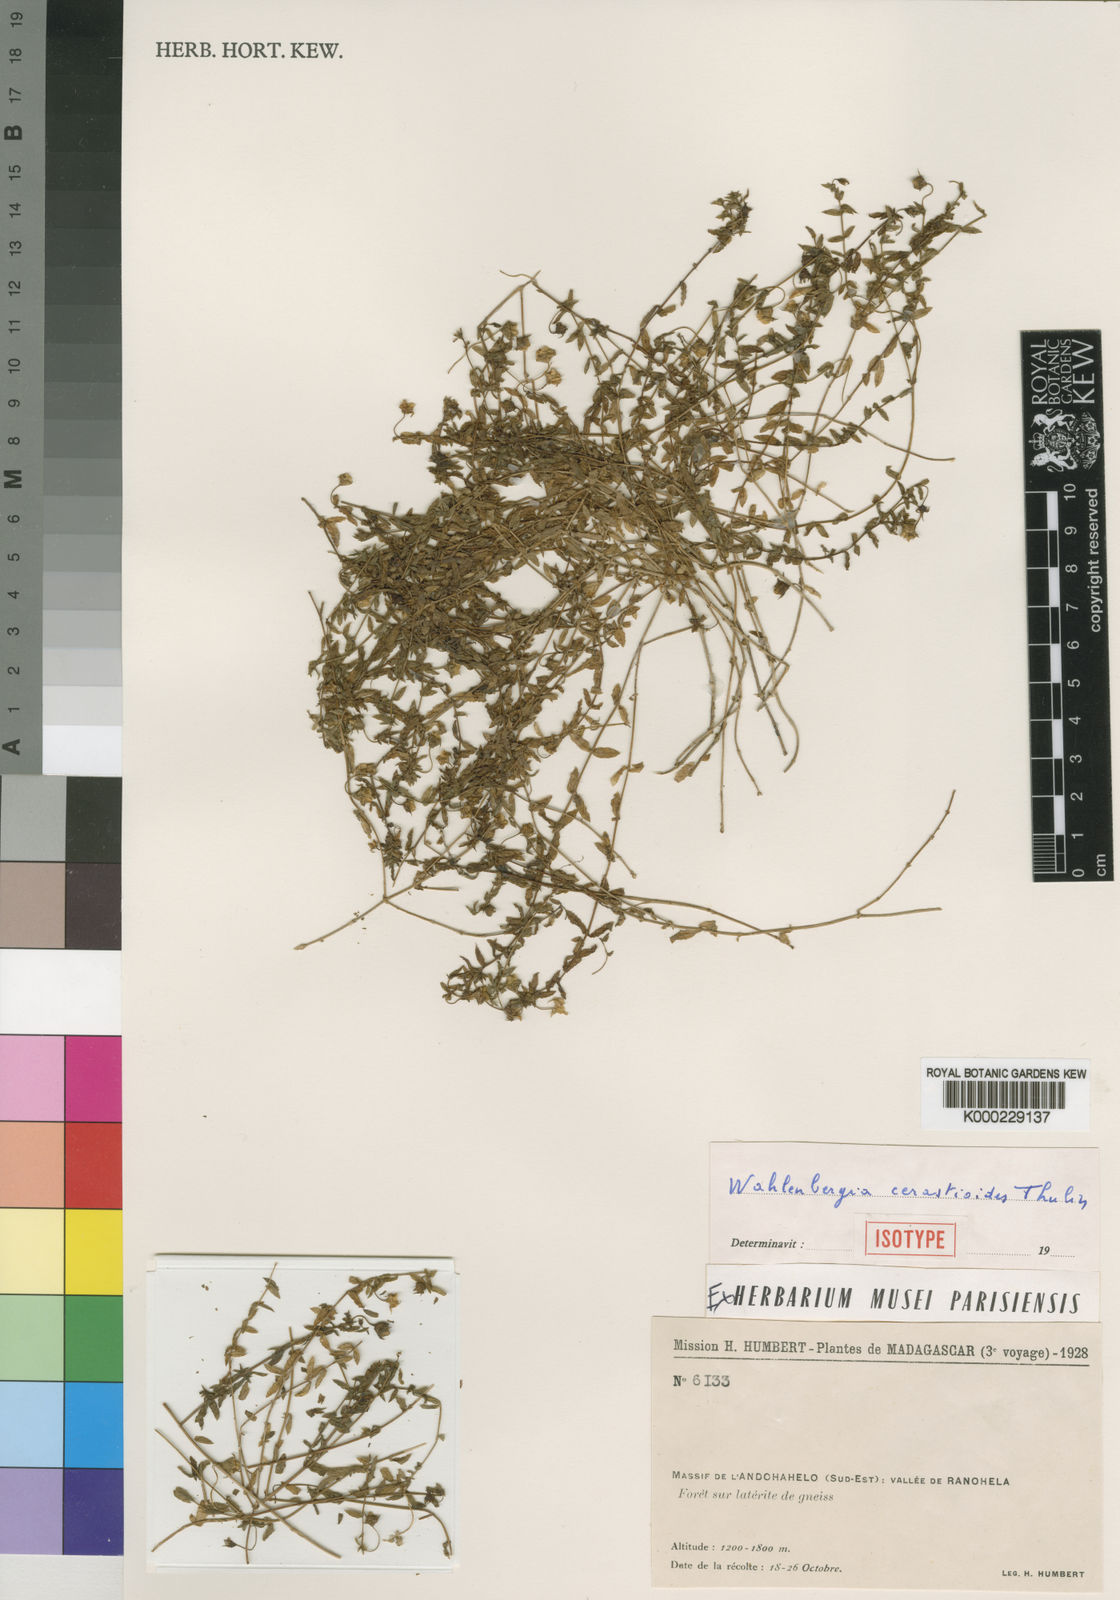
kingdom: Plantae
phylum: Tracheophyta
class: Magnoliopsida
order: Asterales
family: Campanulaceae
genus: Wahlenbergia
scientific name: Wahlenbergia cerastioides
